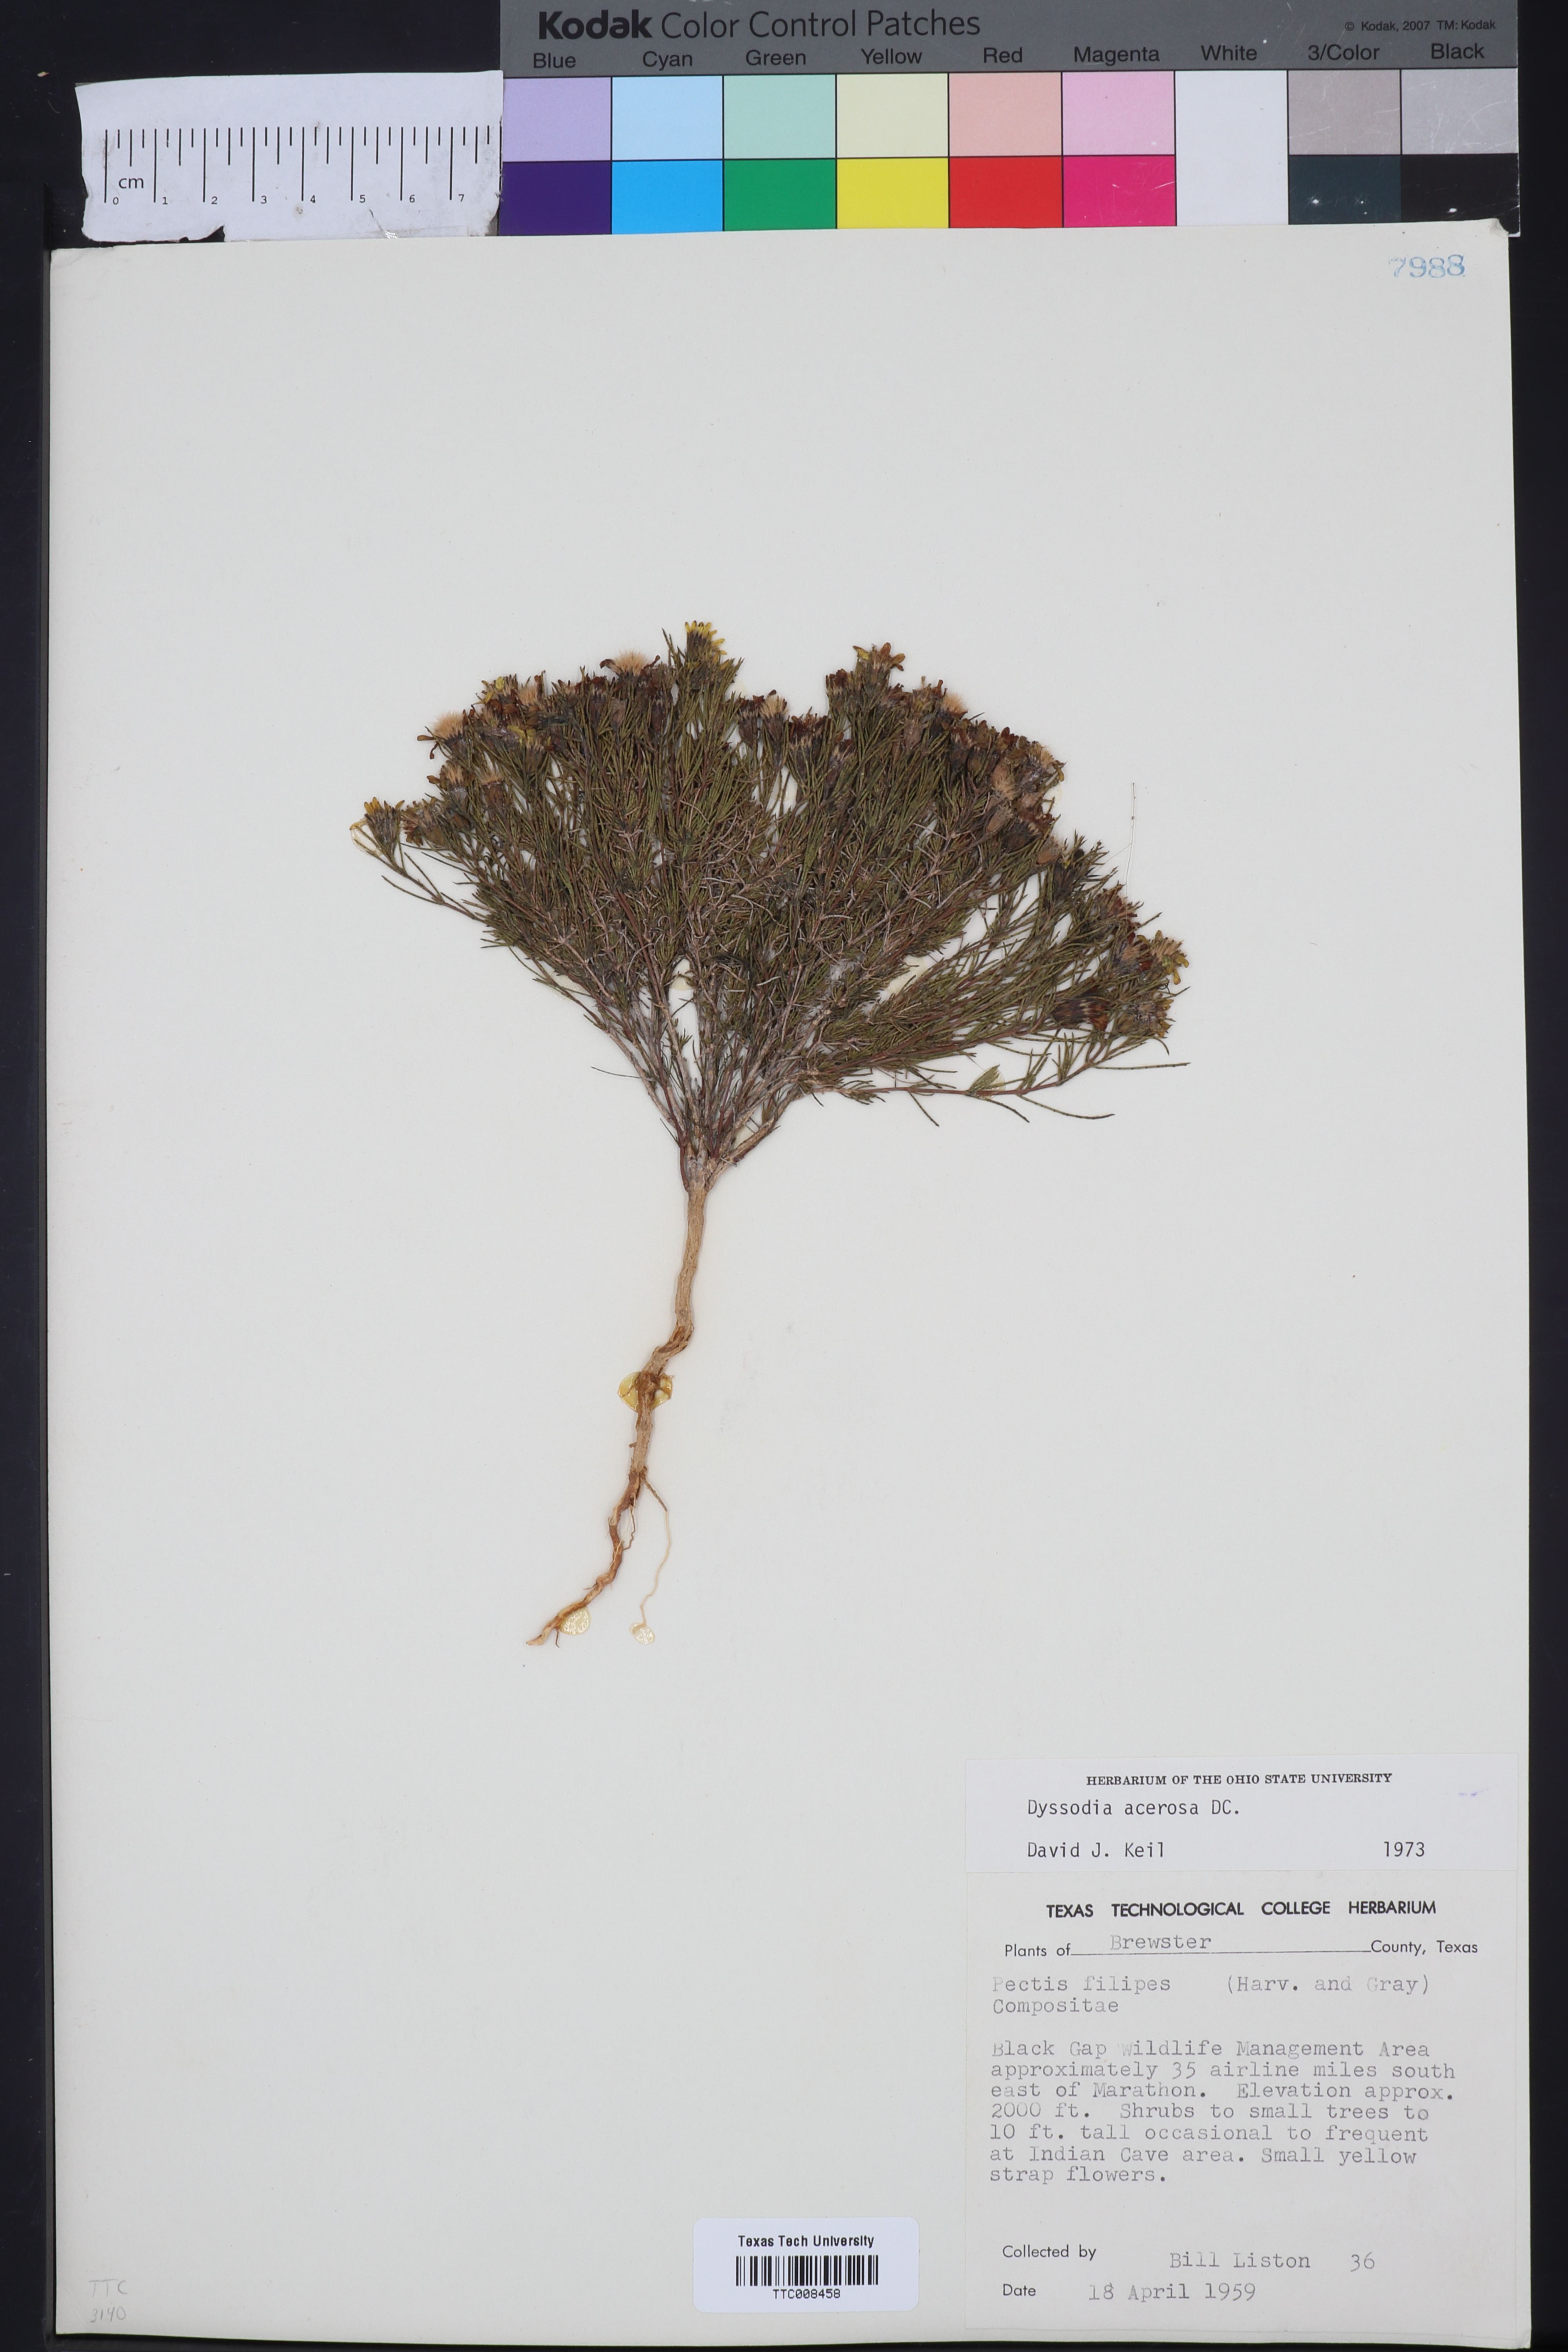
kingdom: Plantae
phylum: Tracheophyta
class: Magnoliopsida
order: Asterales
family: Asteraceae
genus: Thymophylla
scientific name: Thymophylla acerosa
